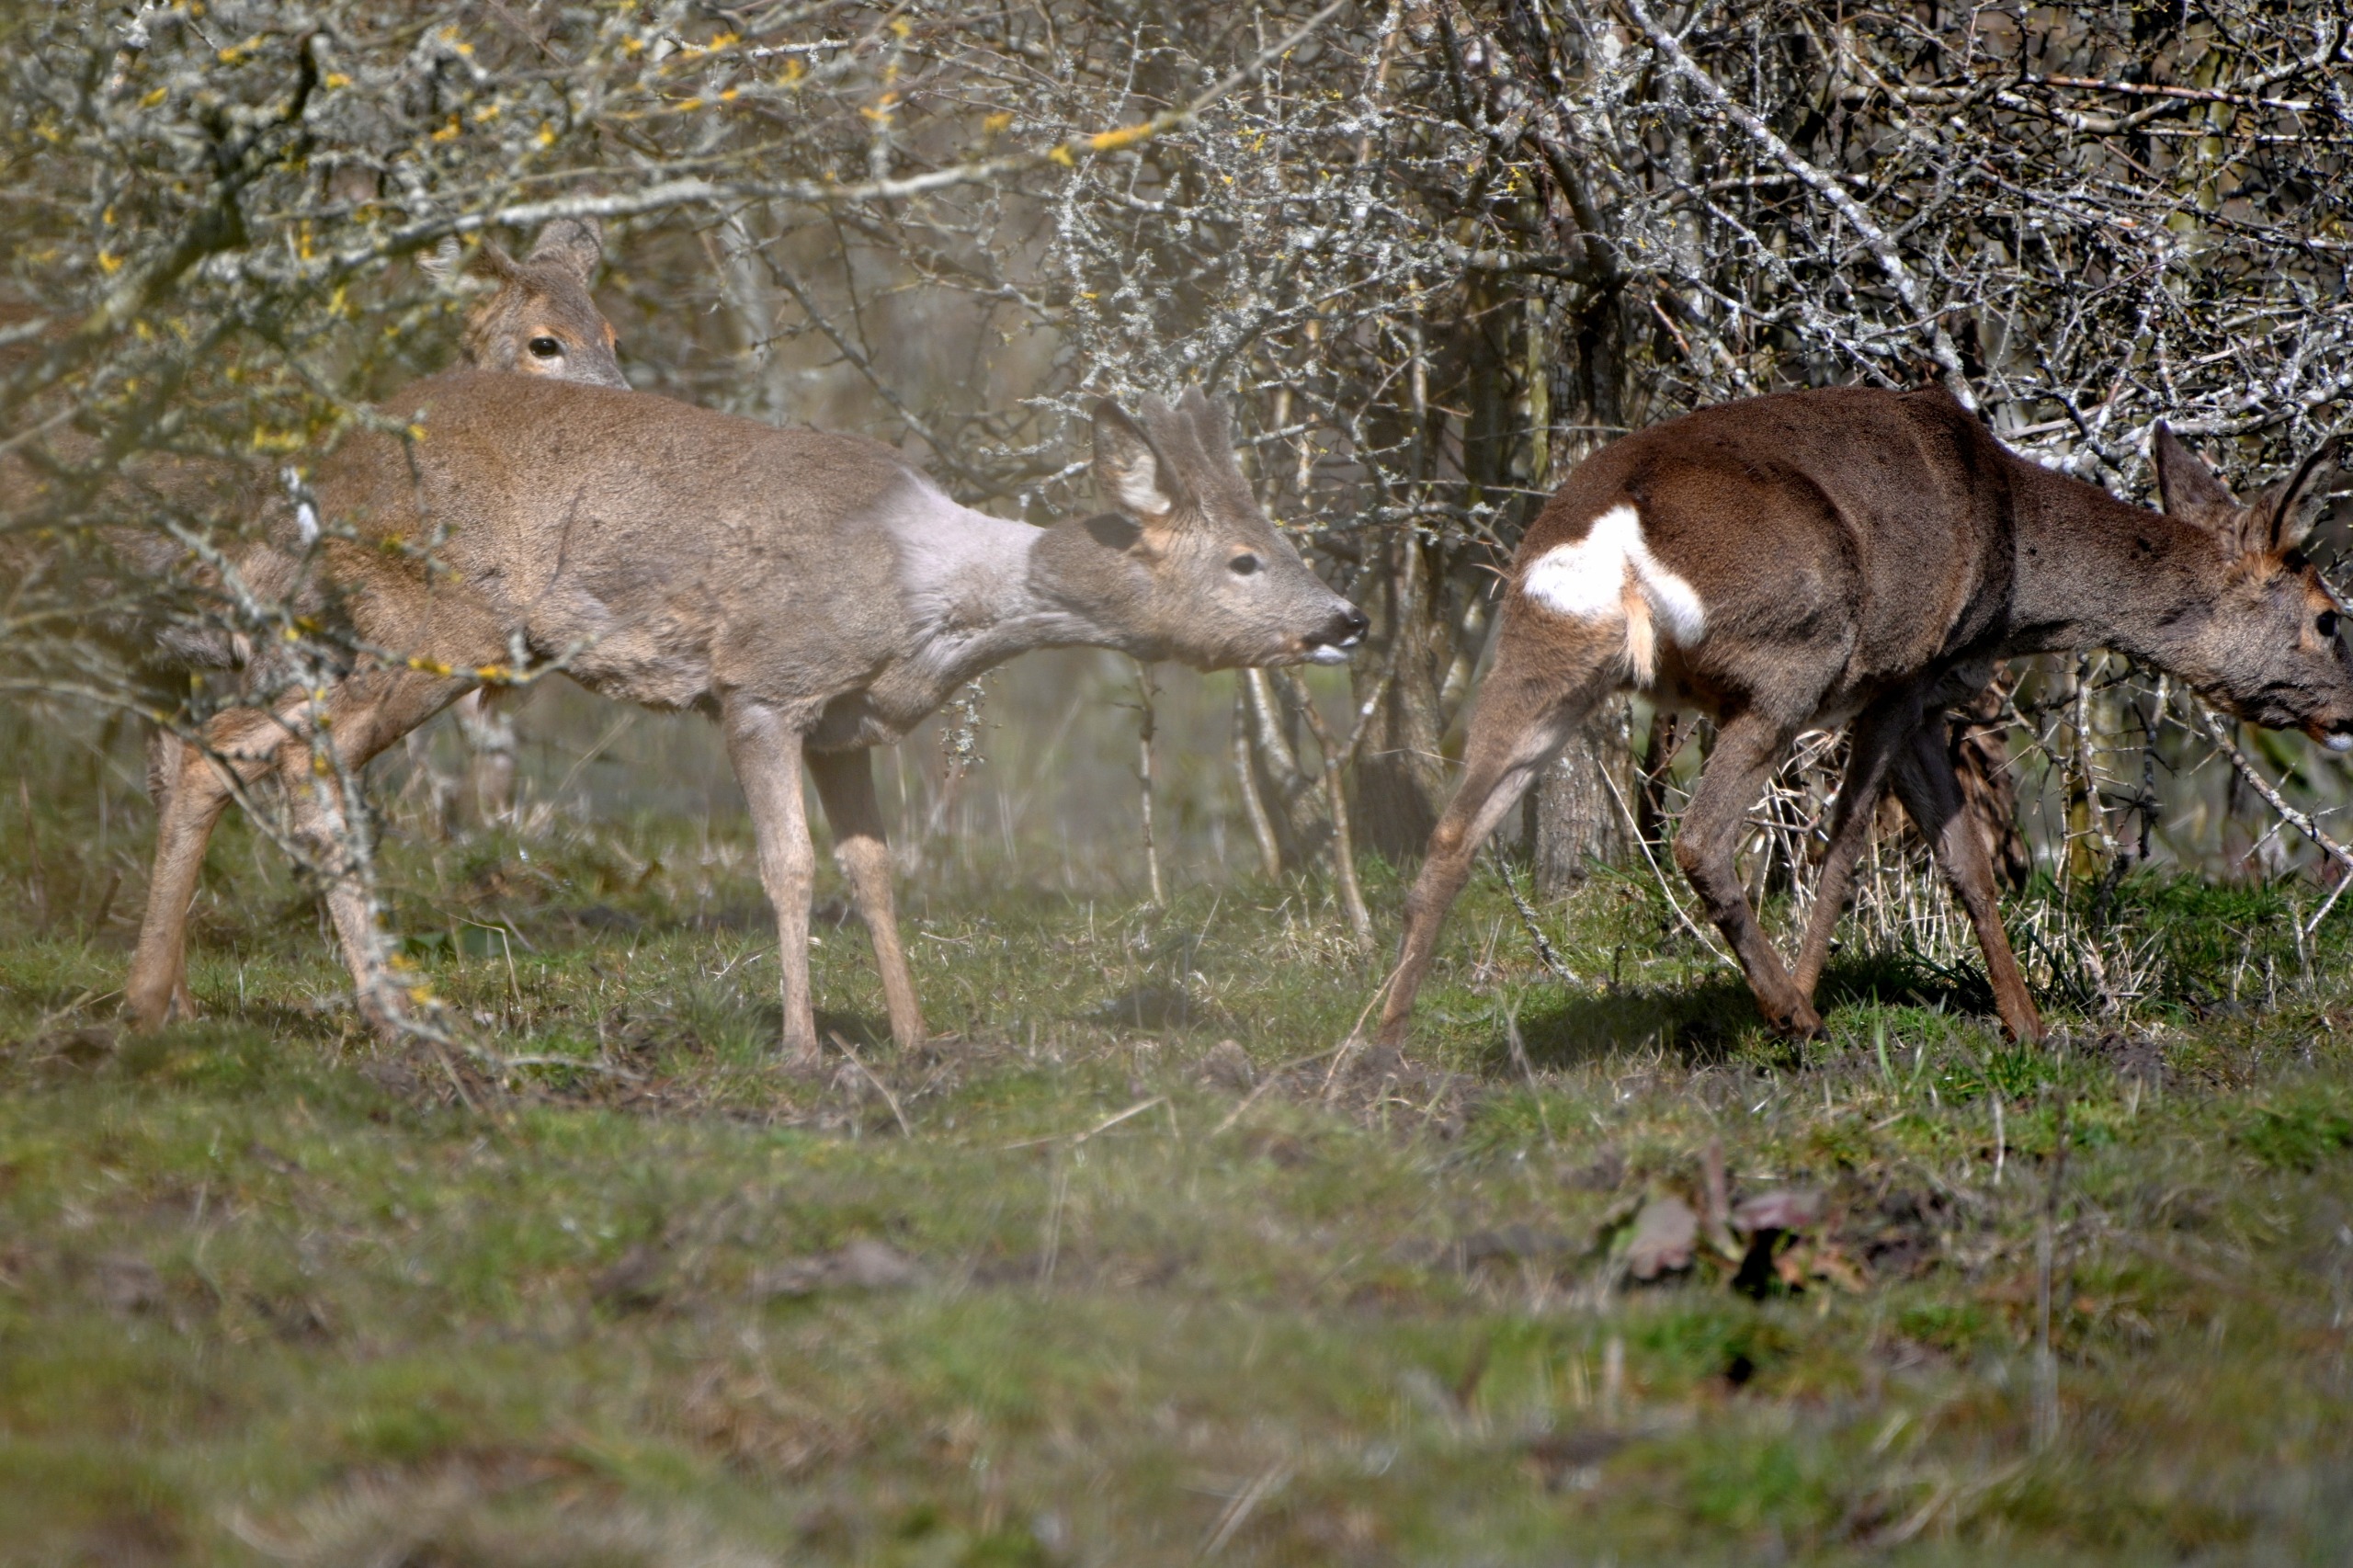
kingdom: Animalia
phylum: Chordata
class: Mammalia
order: Artiodactyla
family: Cervidae
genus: Capreolus
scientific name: Capreolus capreolus
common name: Rådyr
